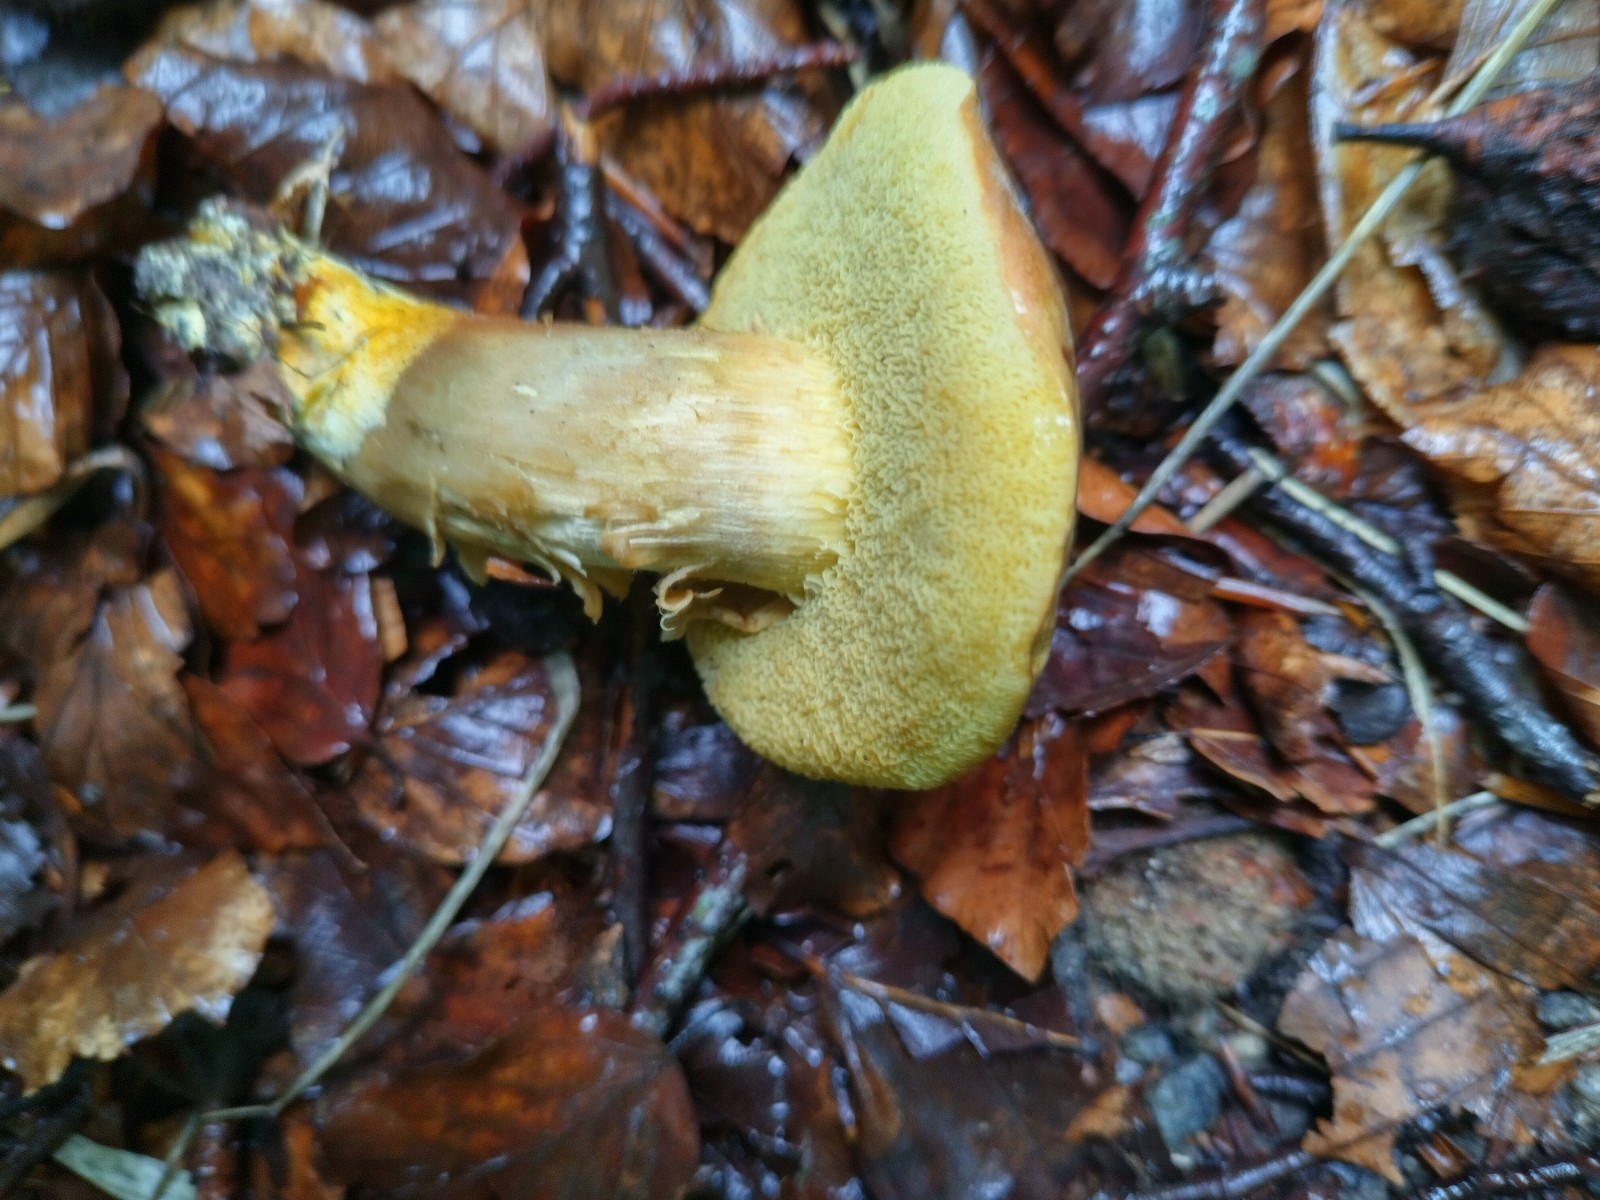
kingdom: Fungi
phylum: Basidiomycota
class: Agaricomycetes
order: Boletales
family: Boletaceae
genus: Butyriboletus
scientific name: Butyriboletus appendiculatus
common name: tenstokket rørhat
